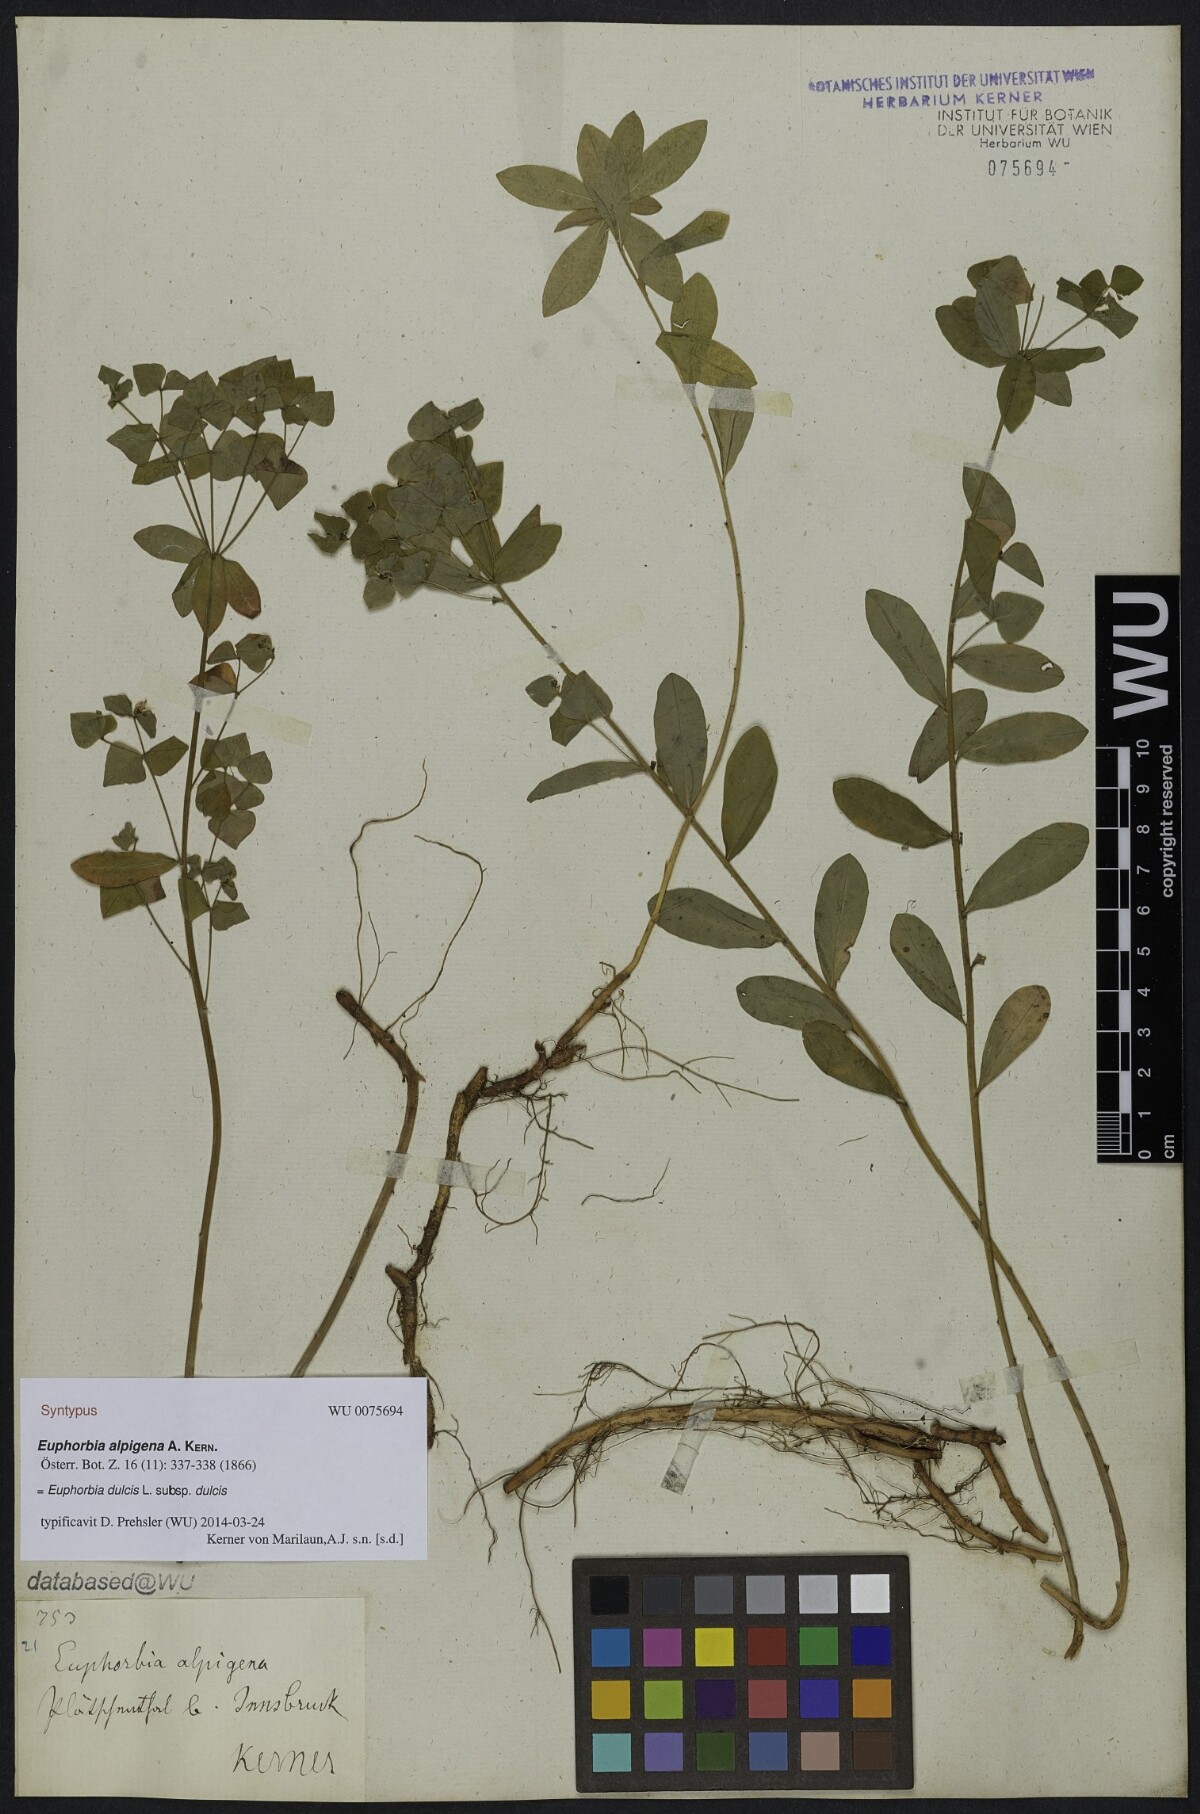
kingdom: Plantae
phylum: Tracheophyta
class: Magnoliopsida
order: Malpighiales
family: Euphorbiaceae
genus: Euphorbia
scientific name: Euphorbia dulcis
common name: Sweet spurge
